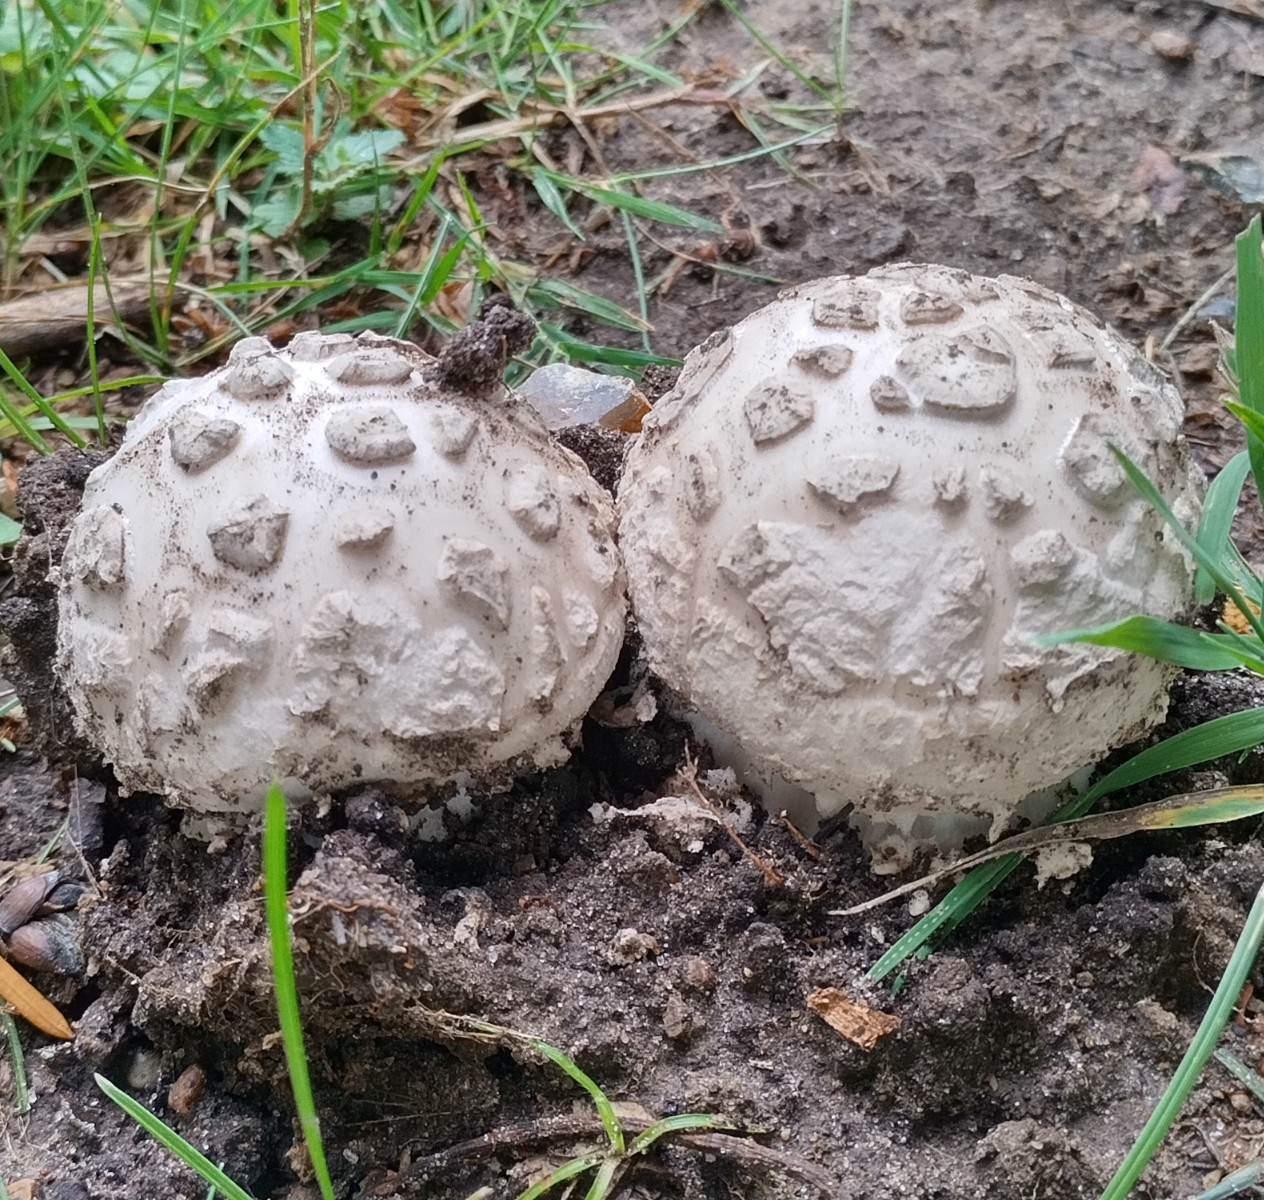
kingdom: Fungi
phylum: Basidiomycota
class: Agaricomycetes
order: Agaricales
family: Amanitaceae
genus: Amanita
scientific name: Amanita
